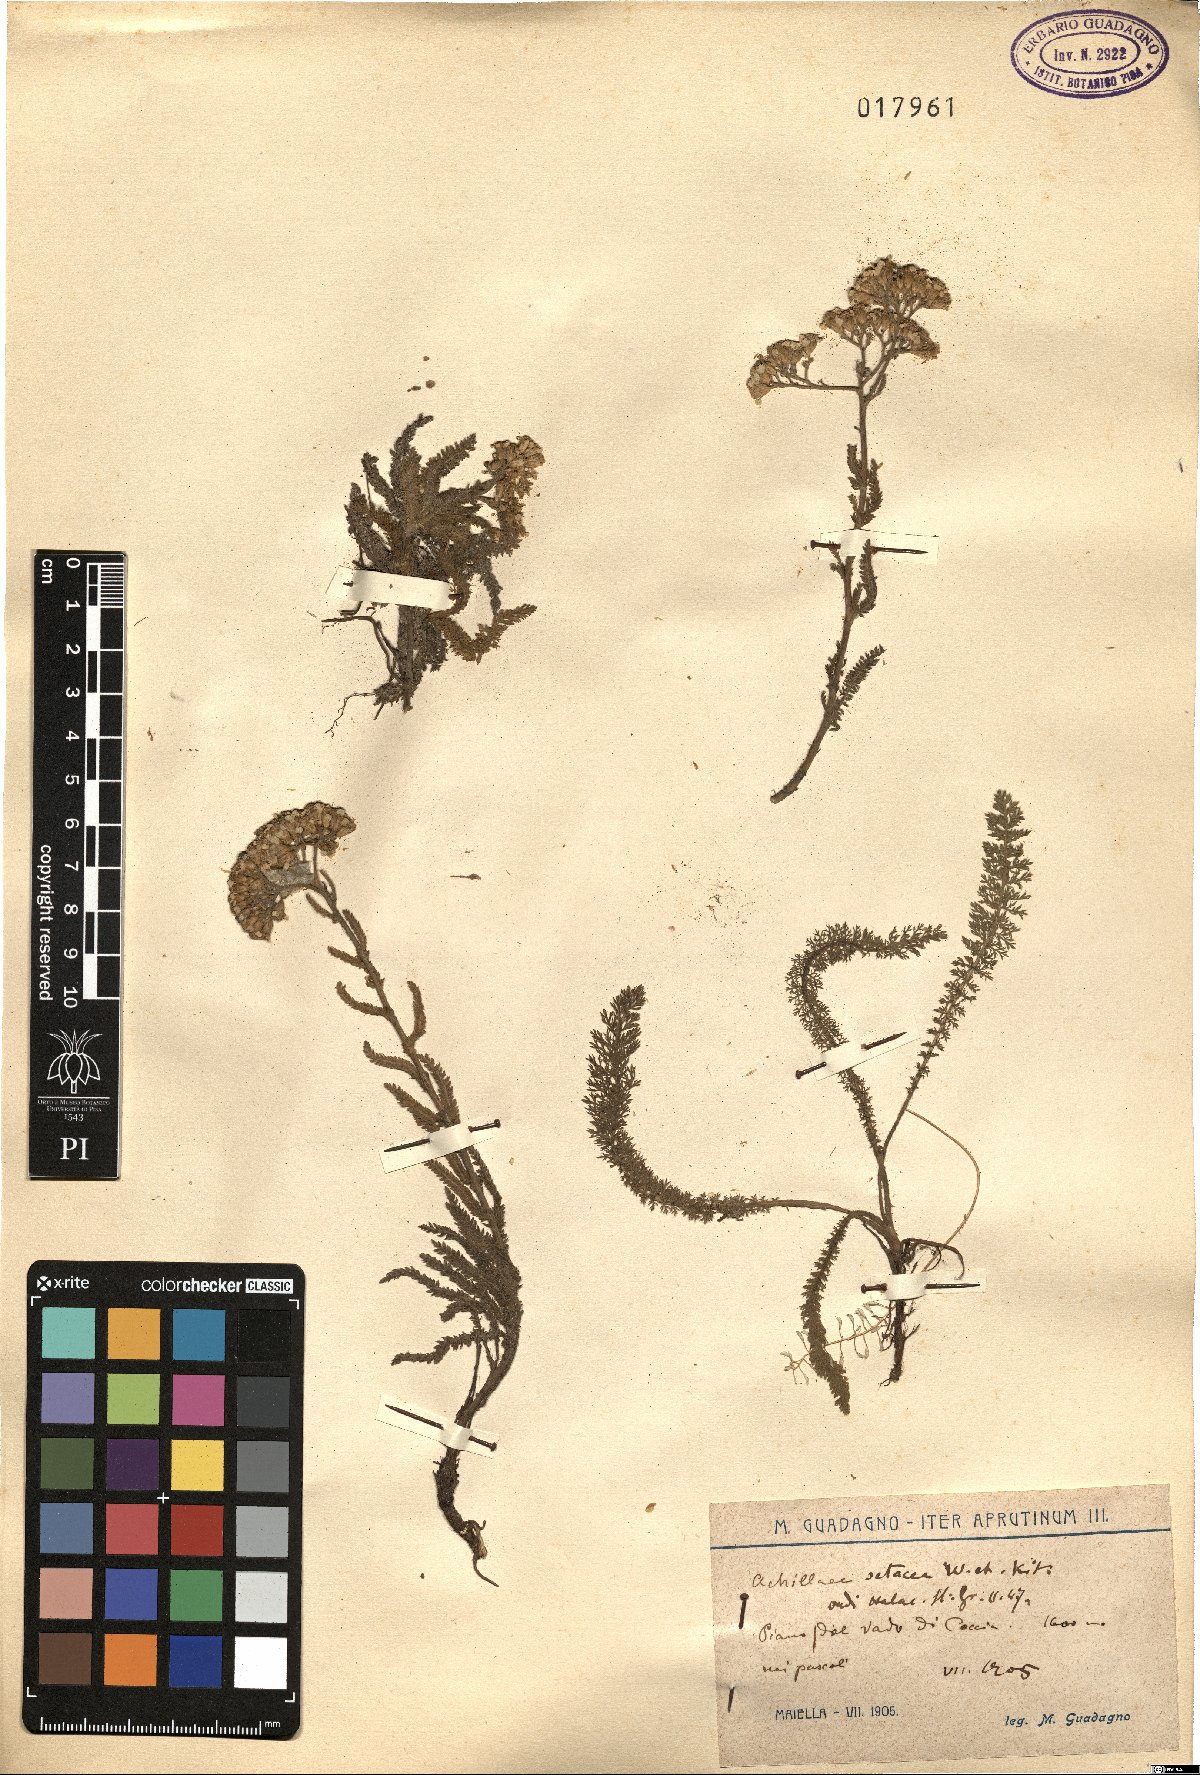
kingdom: Plantae
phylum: Tracheophyta
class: Magnoliopsida
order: Asterales
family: Asteraceae
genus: Achillea
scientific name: Achillea setacea
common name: Bristly yarrow
